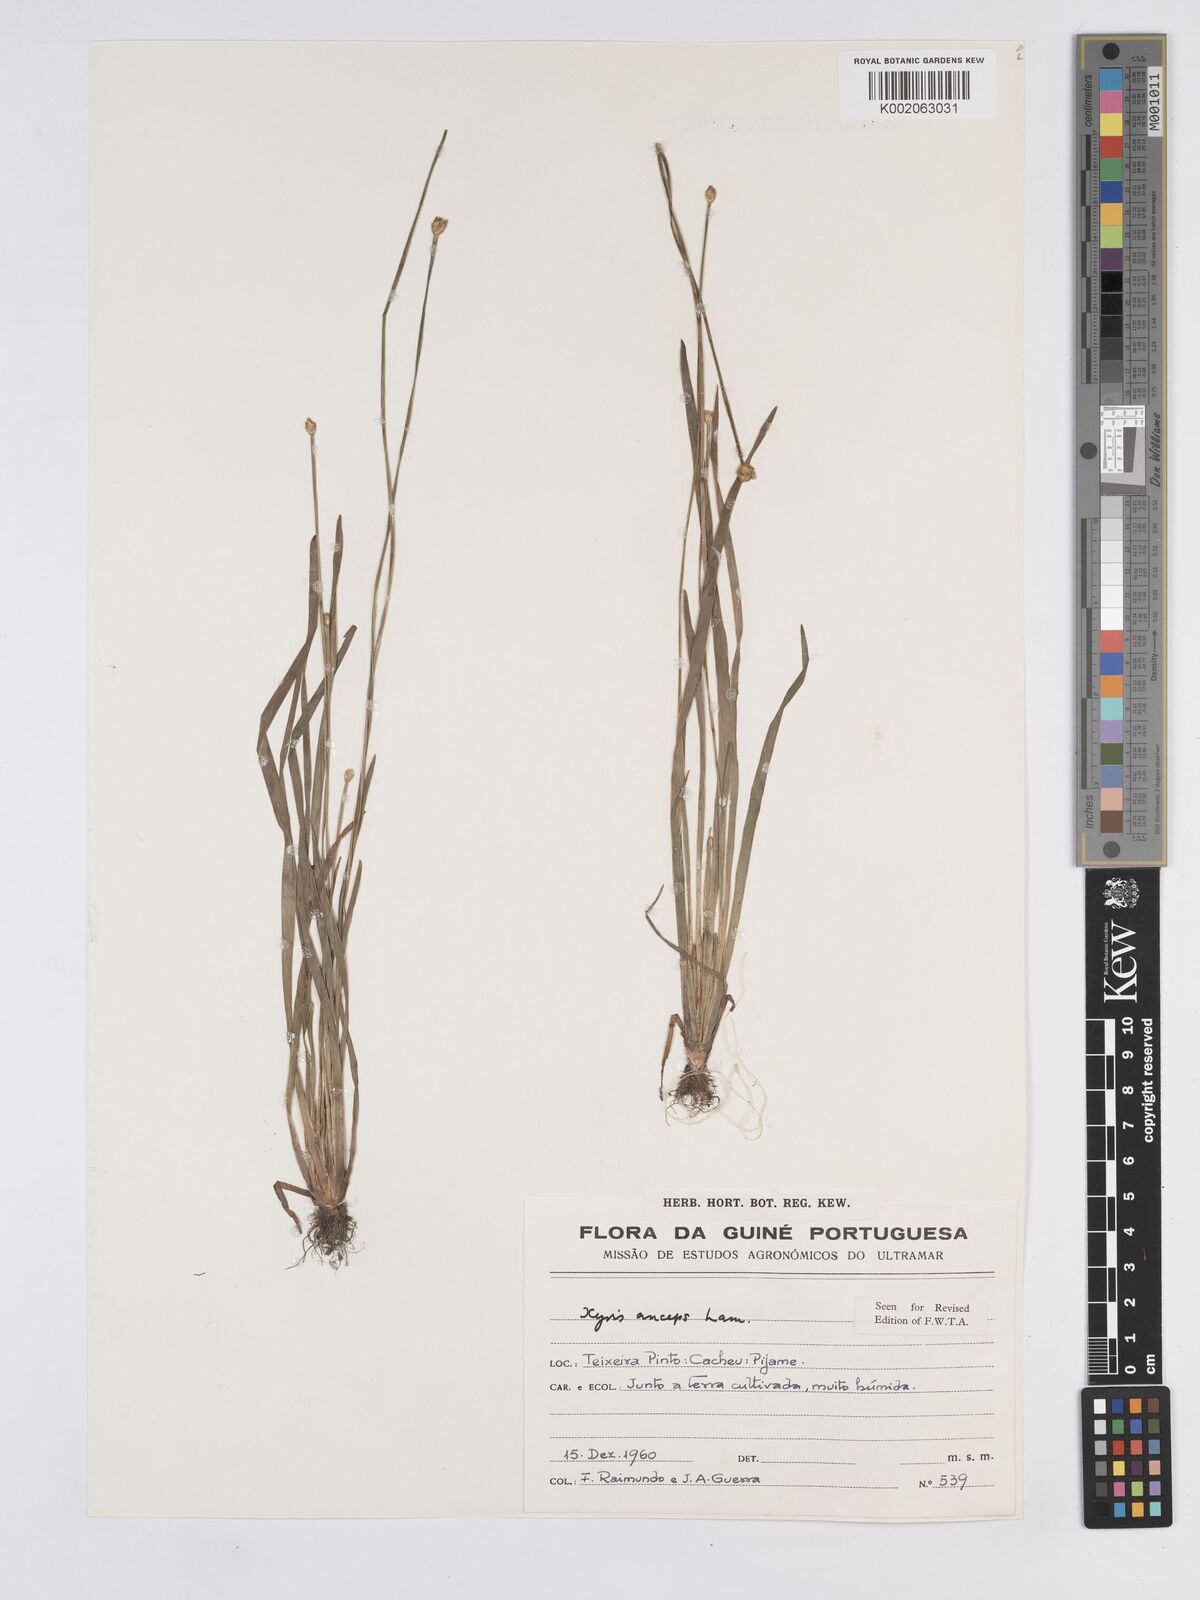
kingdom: Plantae
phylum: Tracheophyta
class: Liliopsida
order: Poales
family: Xyridaceae
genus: Xyris
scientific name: Xyris anceps
